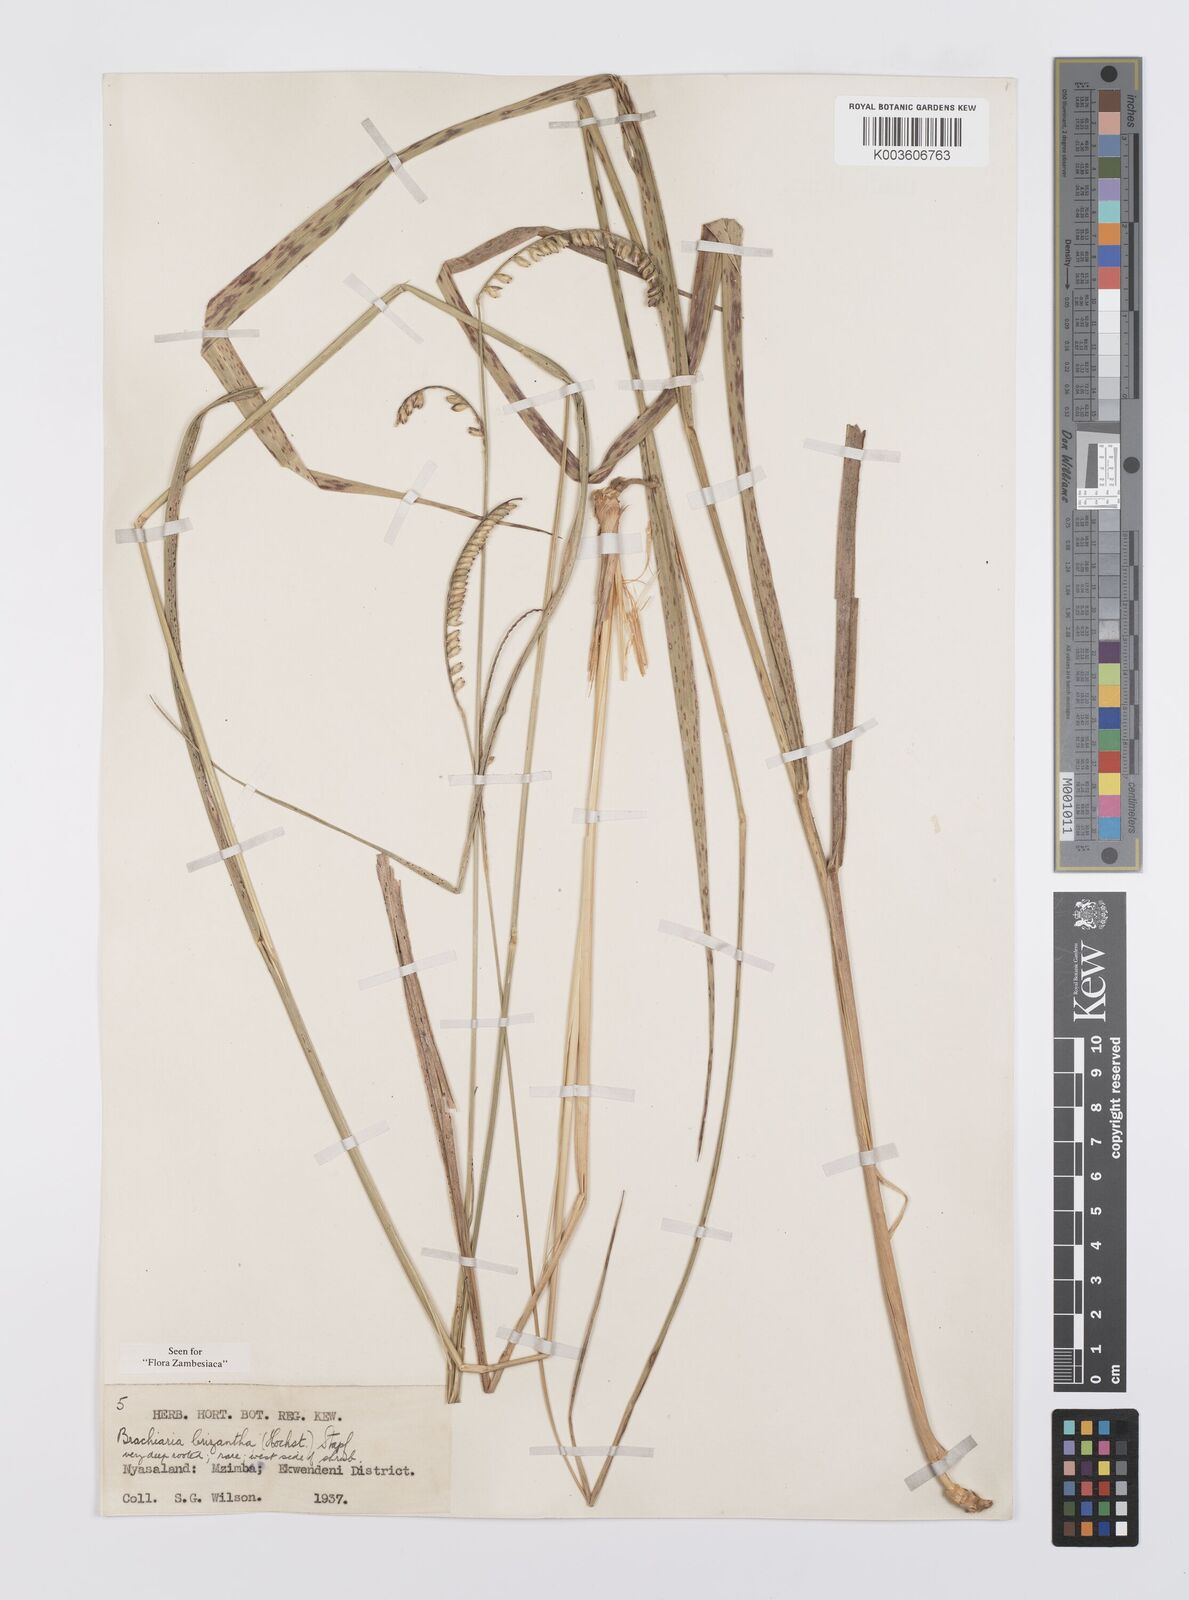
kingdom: Plantae
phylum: Tracheophyta
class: Liliopsida
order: Poales
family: Poaceae
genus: Urochloa
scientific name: Urochloa brizantha
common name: Palisade signalgrass
